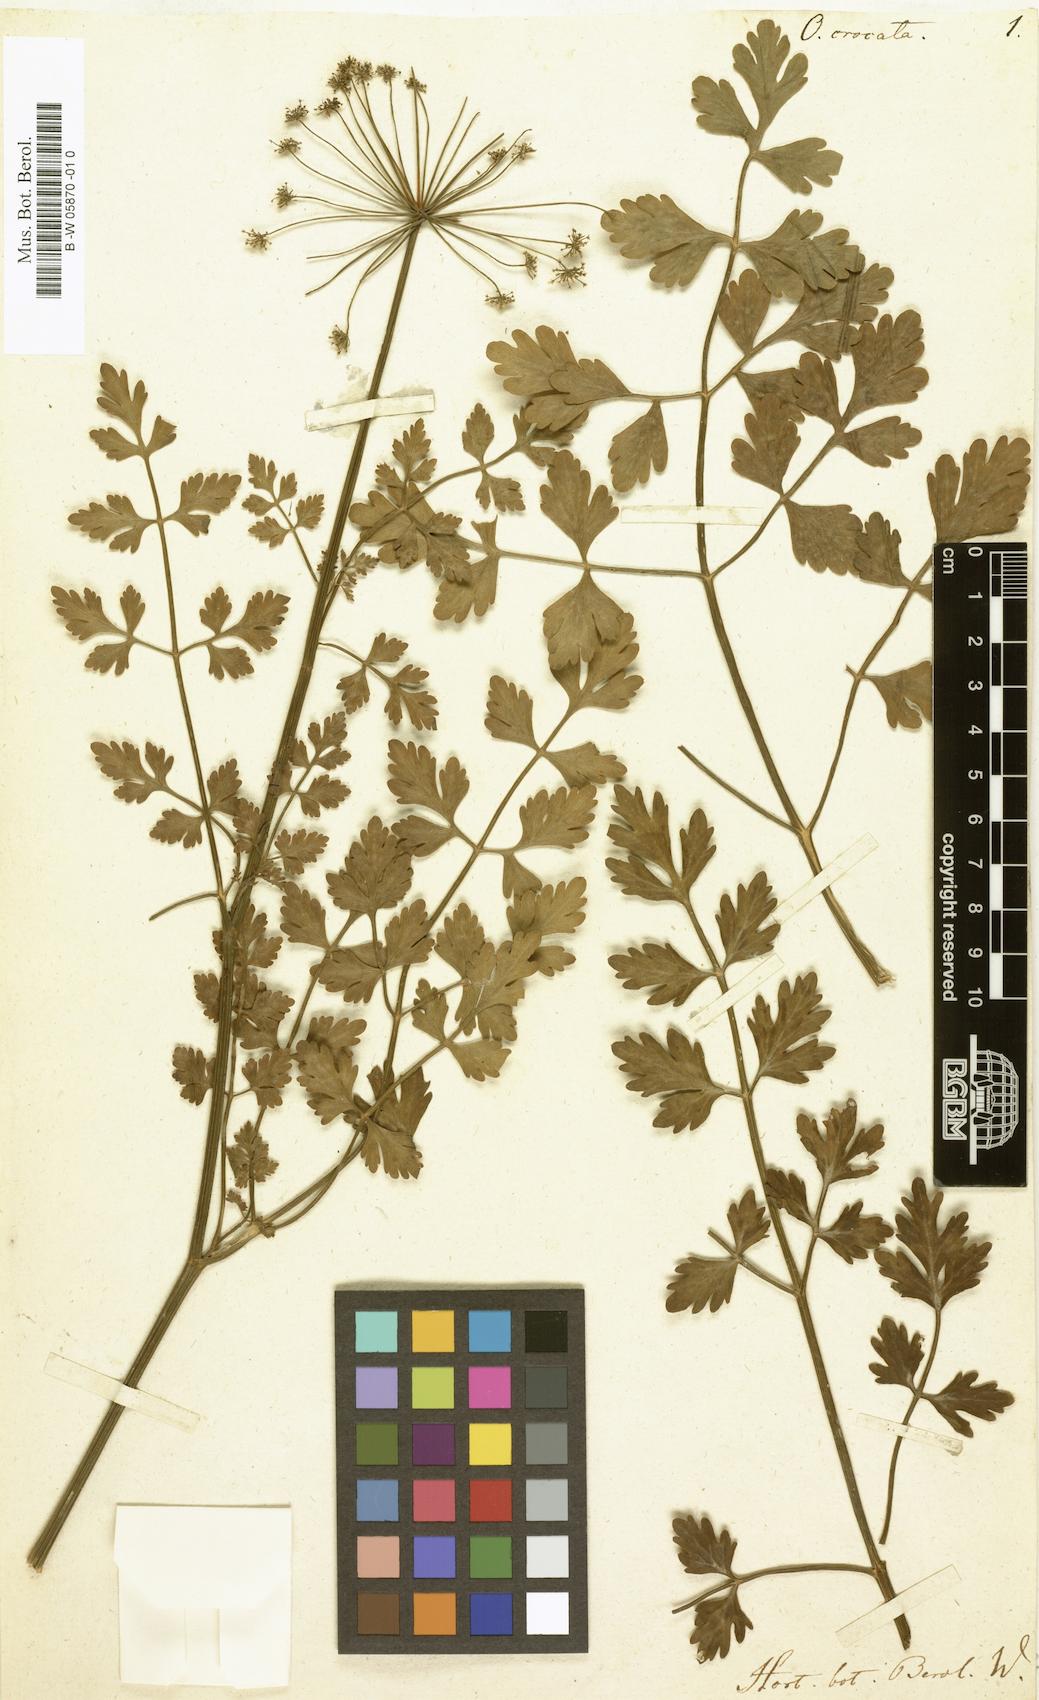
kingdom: Plantae
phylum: Tracheophyta
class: Magnoliopsida
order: Apiales
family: Apiaceae
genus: Oenanthe
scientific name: Oenanthe crocata
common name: Hemlock water-dropwort
